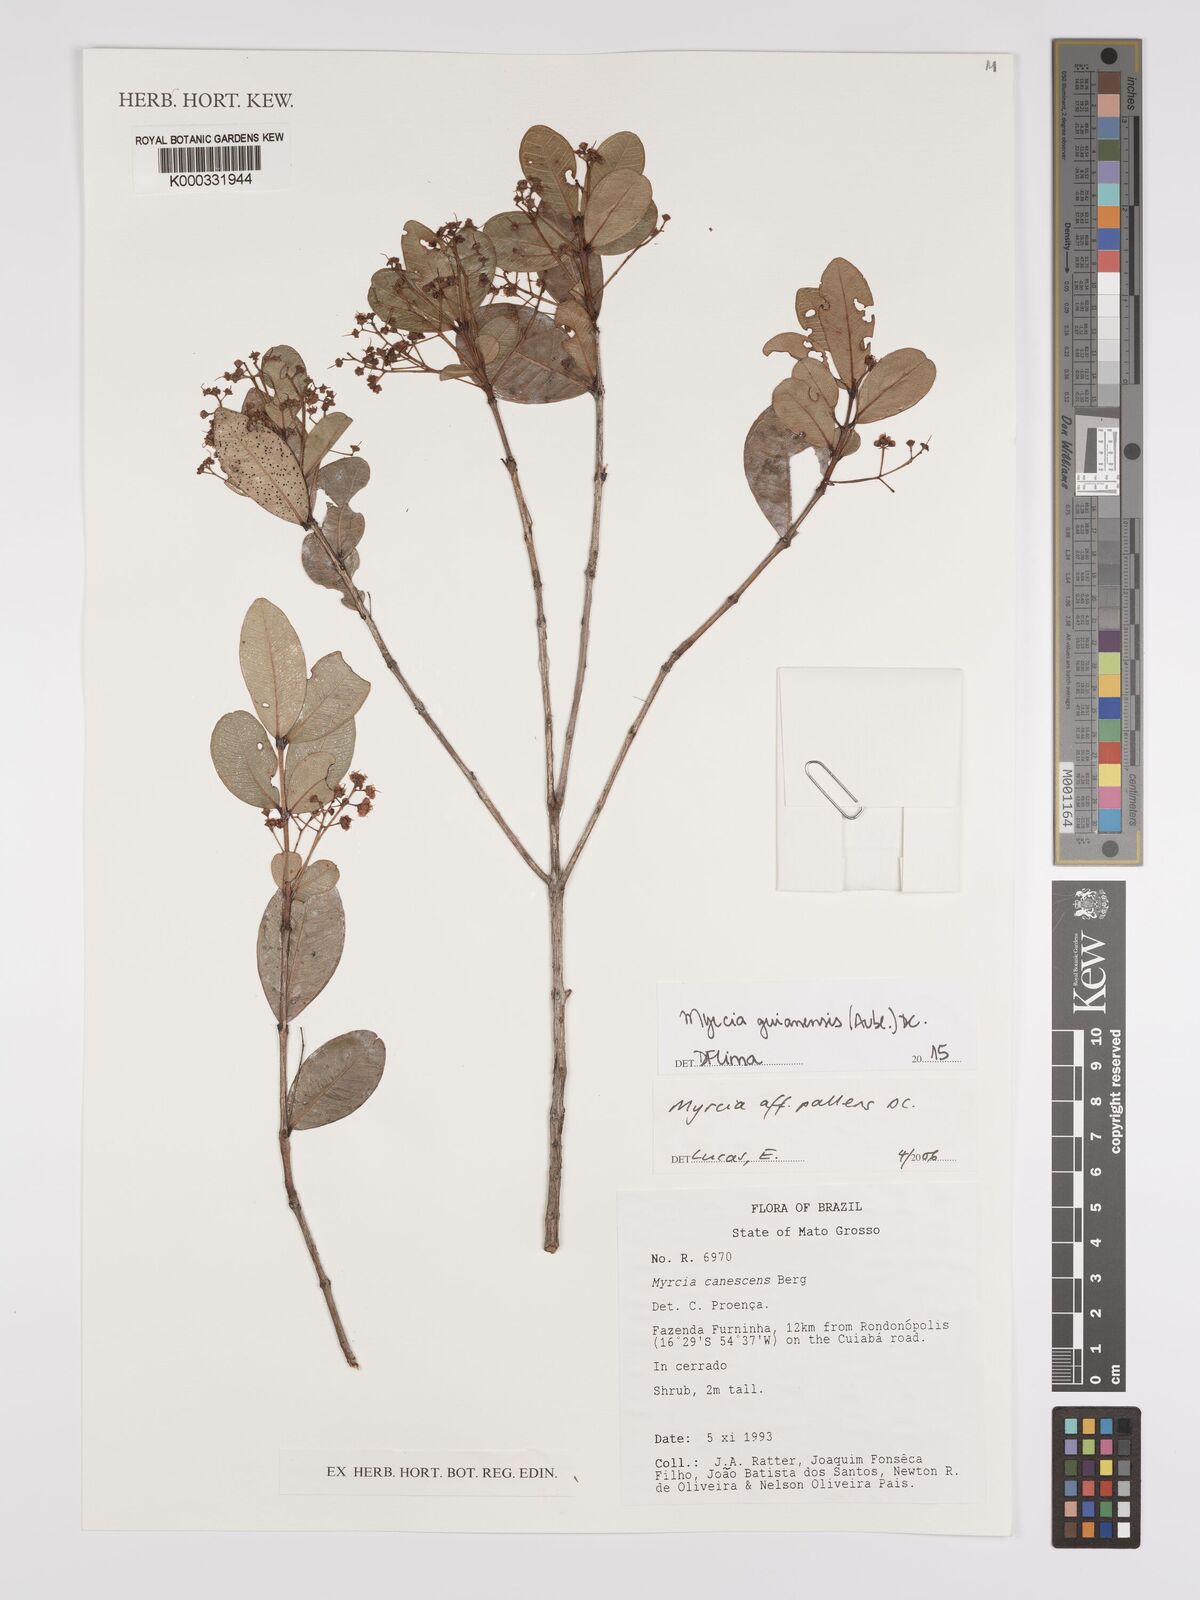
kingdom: Plantae
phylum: Tracheophyta
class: Magnoliopsida
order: Myrtales
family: Myrtaceae
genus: Myrcia
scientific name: Myrcia guianensis
